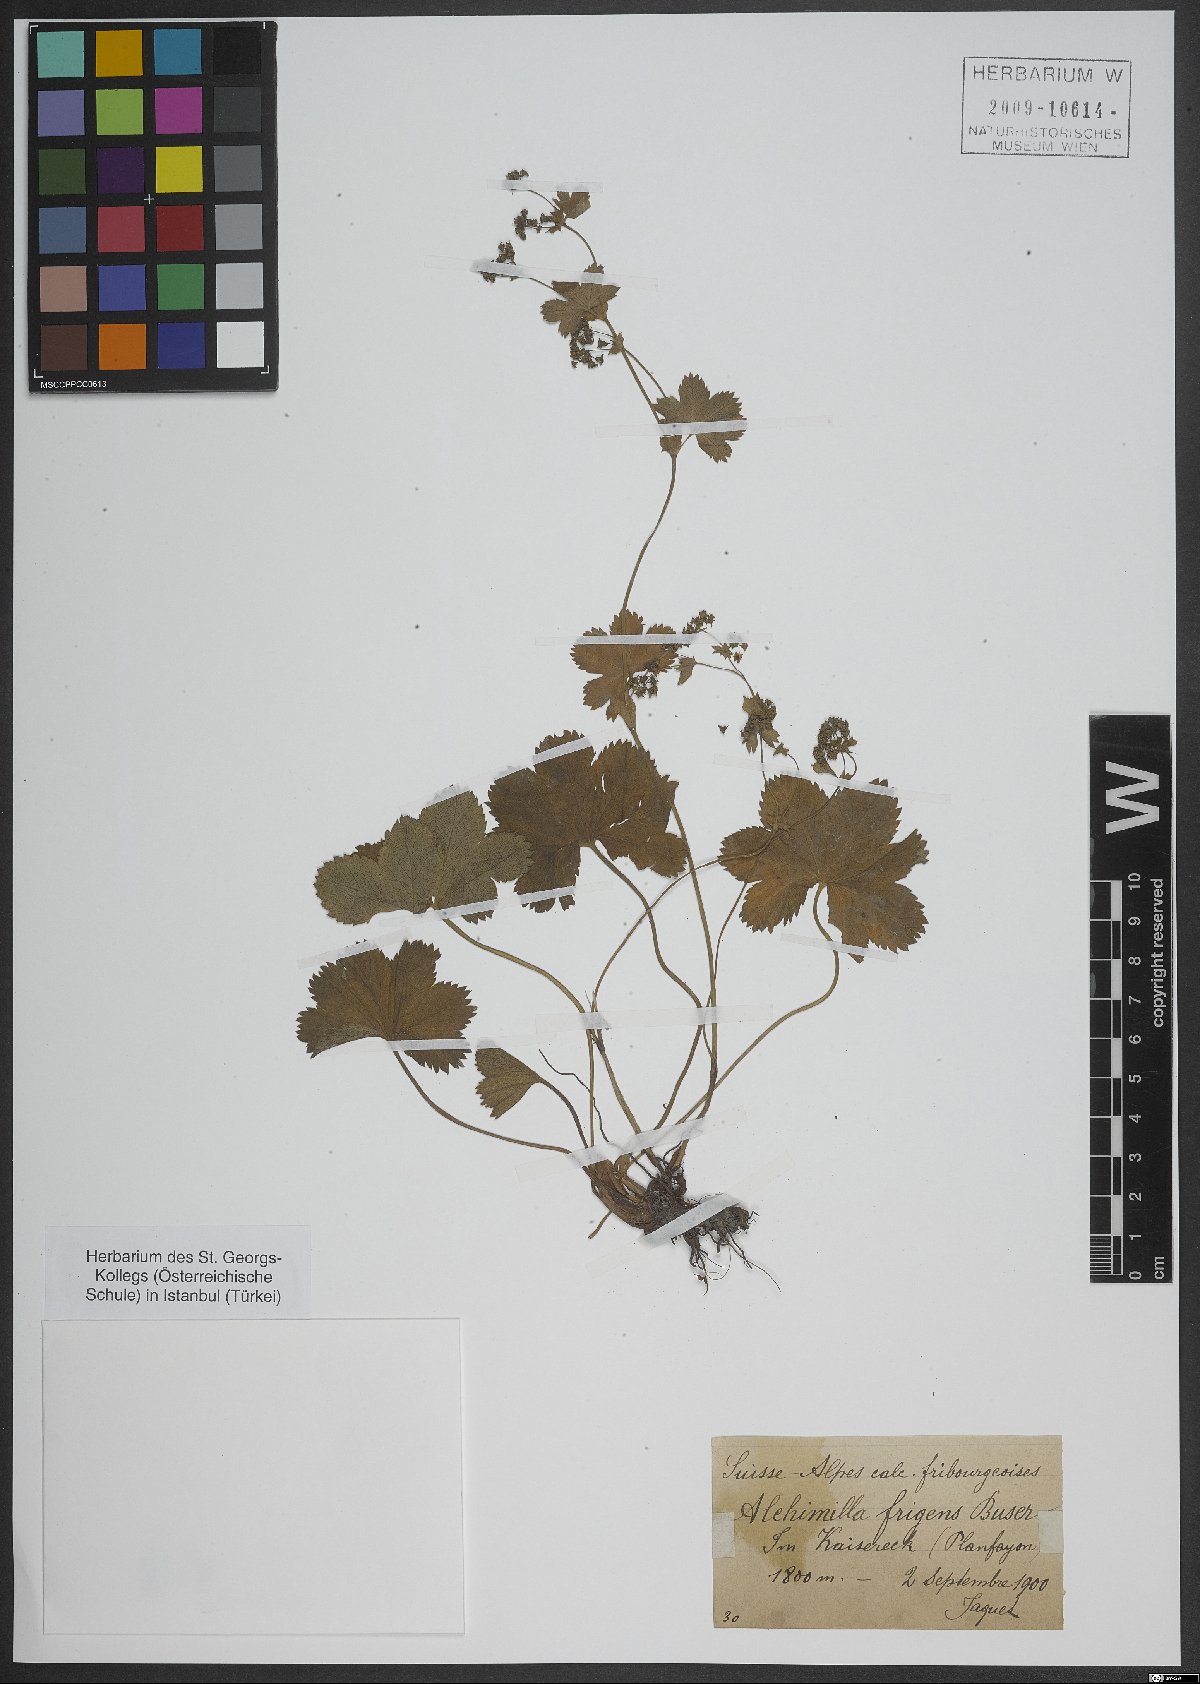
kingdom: Plantae
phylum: Tracheophyta
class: Magnoliopsida
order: Rosales
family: Rosaceae
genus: Alchemilla
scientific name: Alchemilla frigens
